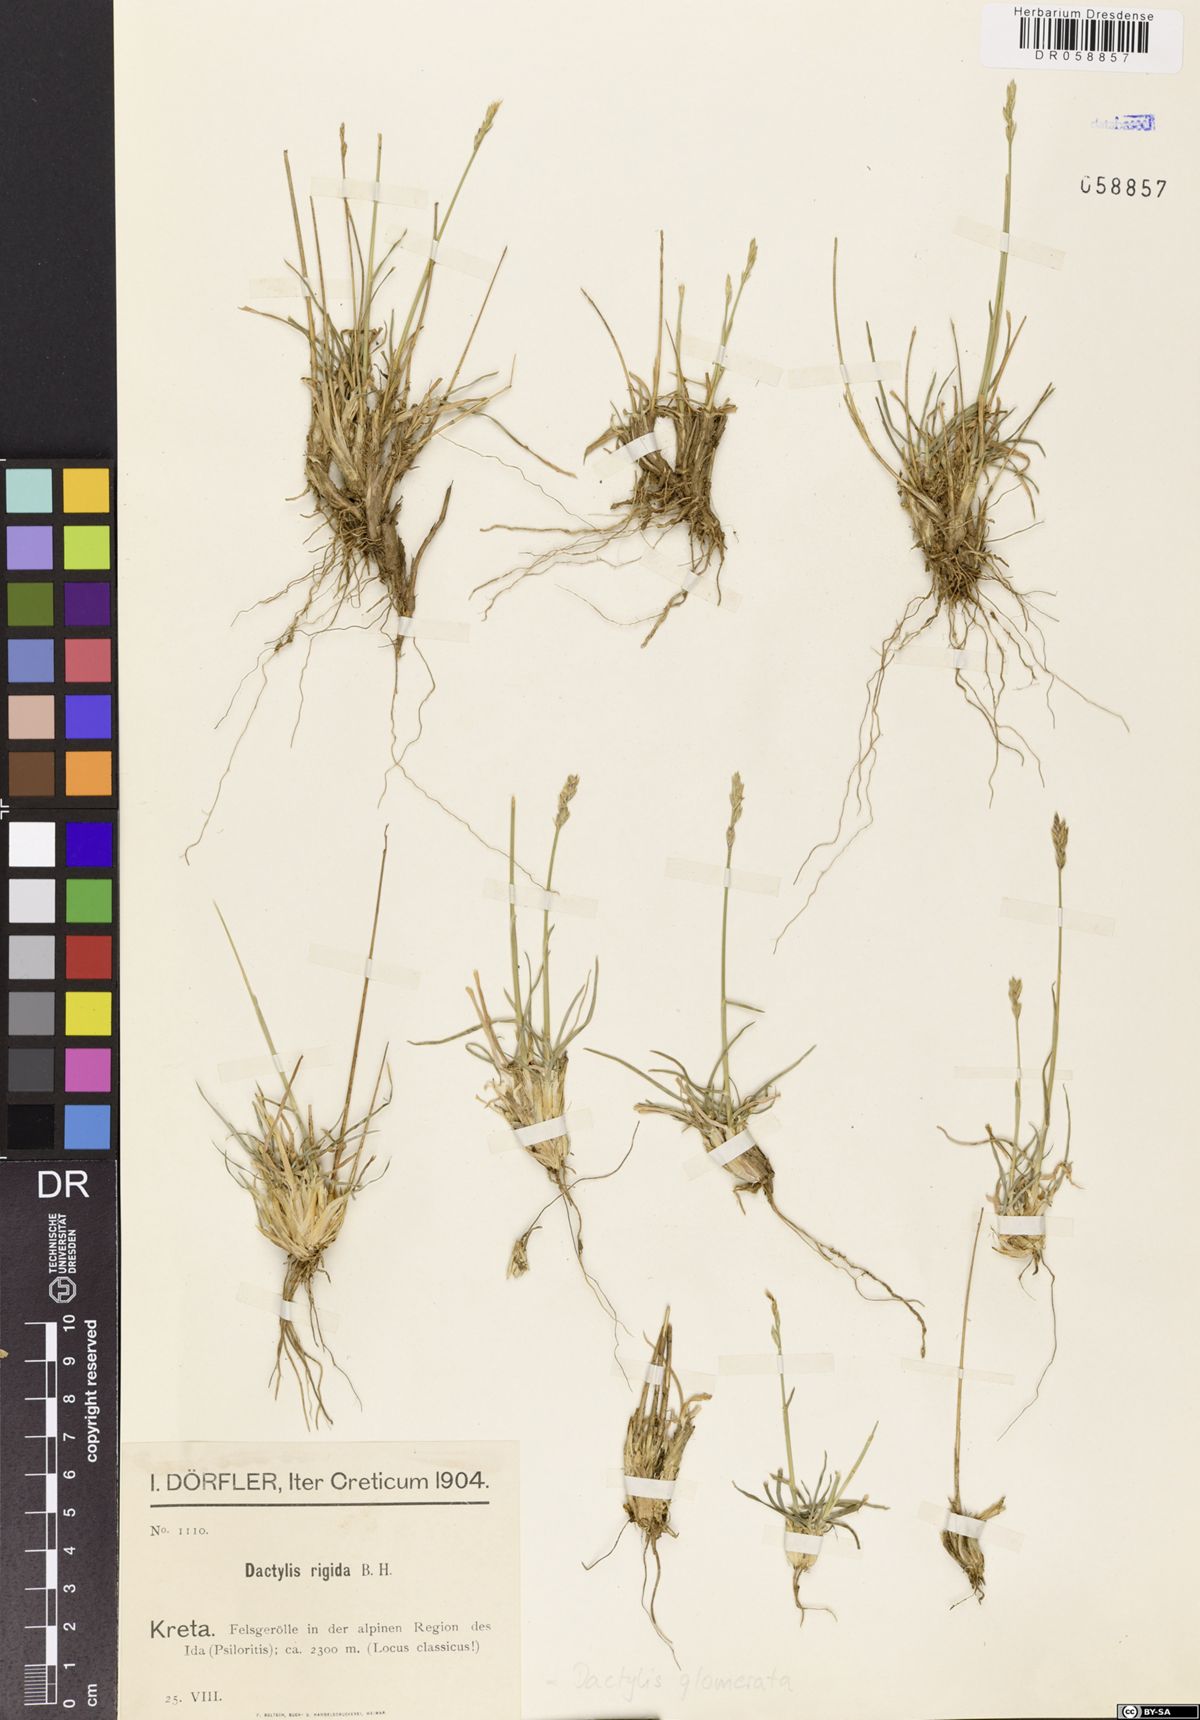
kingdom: Plantae
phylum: Tracheophyta
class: Liliopsida
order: Poales
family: Poaceae
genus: Dactylis
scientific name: Dactylis glomerata
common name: Orchardgrass
